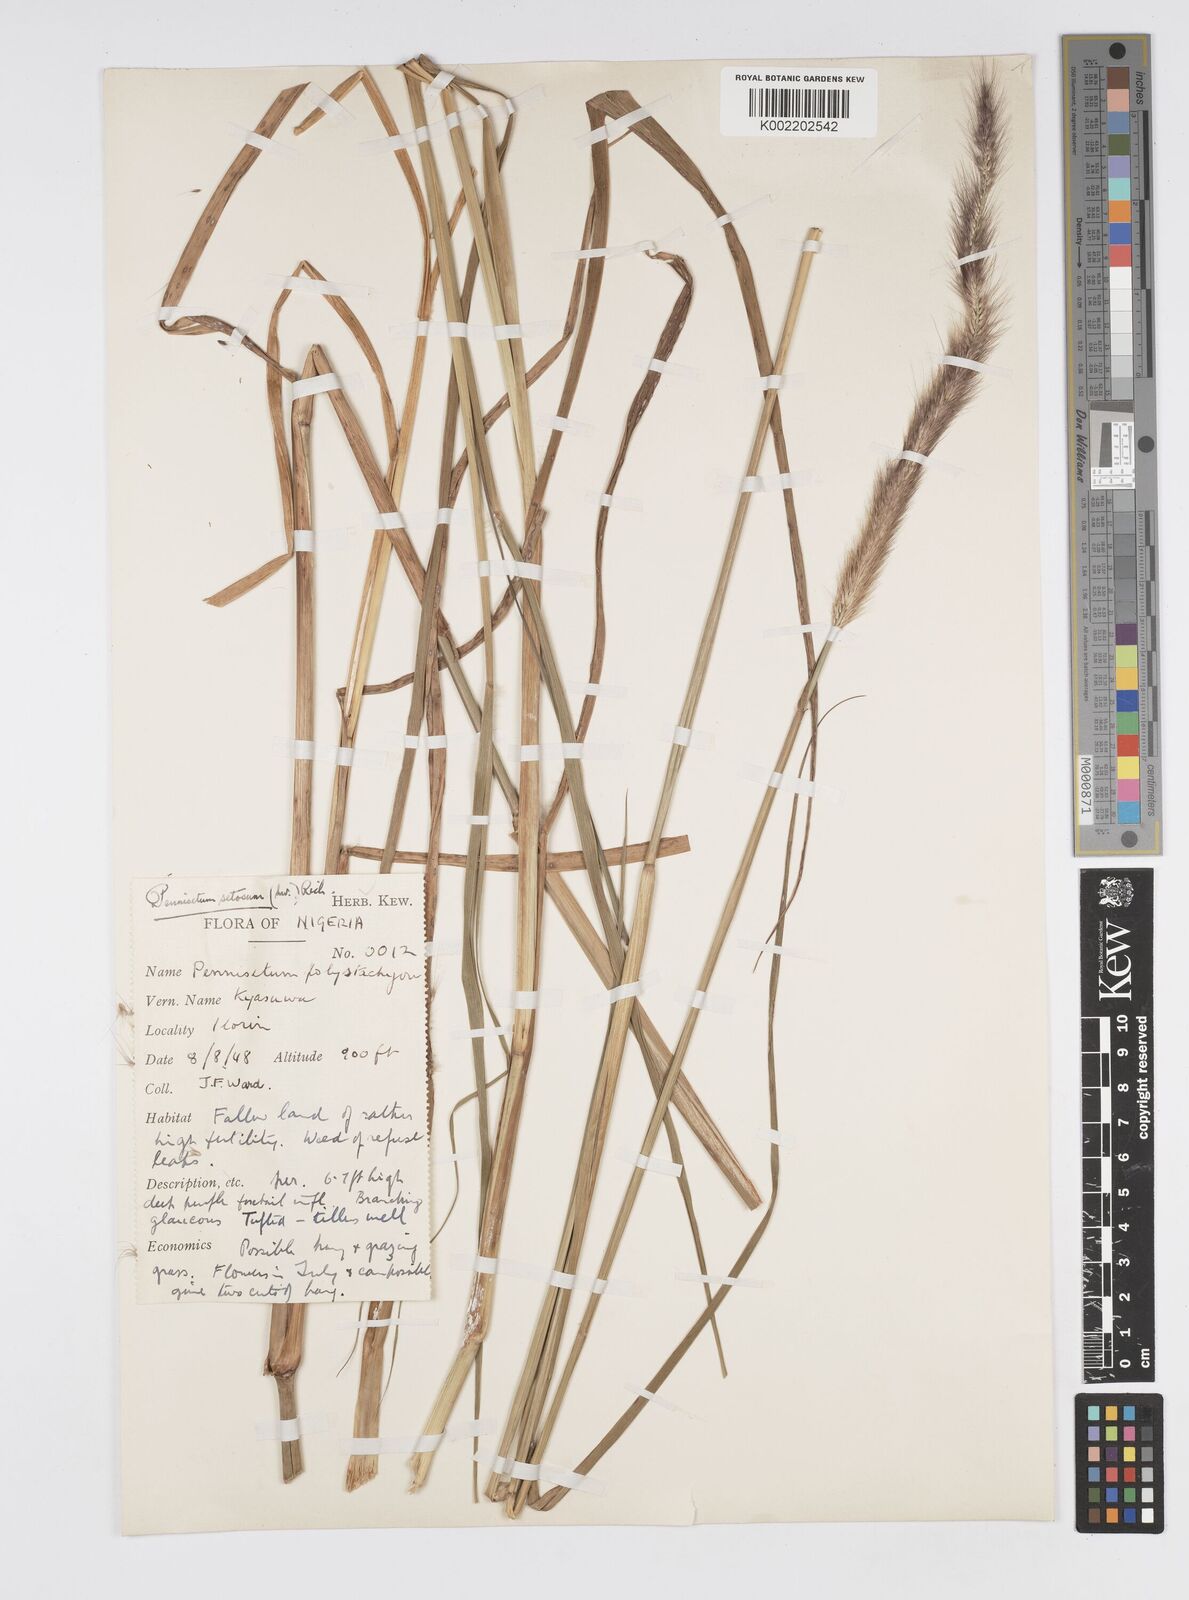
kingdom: Plantae
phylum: Tracheophyta
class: Liliopsida
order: Poales
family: Poaceae
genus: Setaria
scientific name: Setaria parviflora
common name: Knotroot bristle-grass
